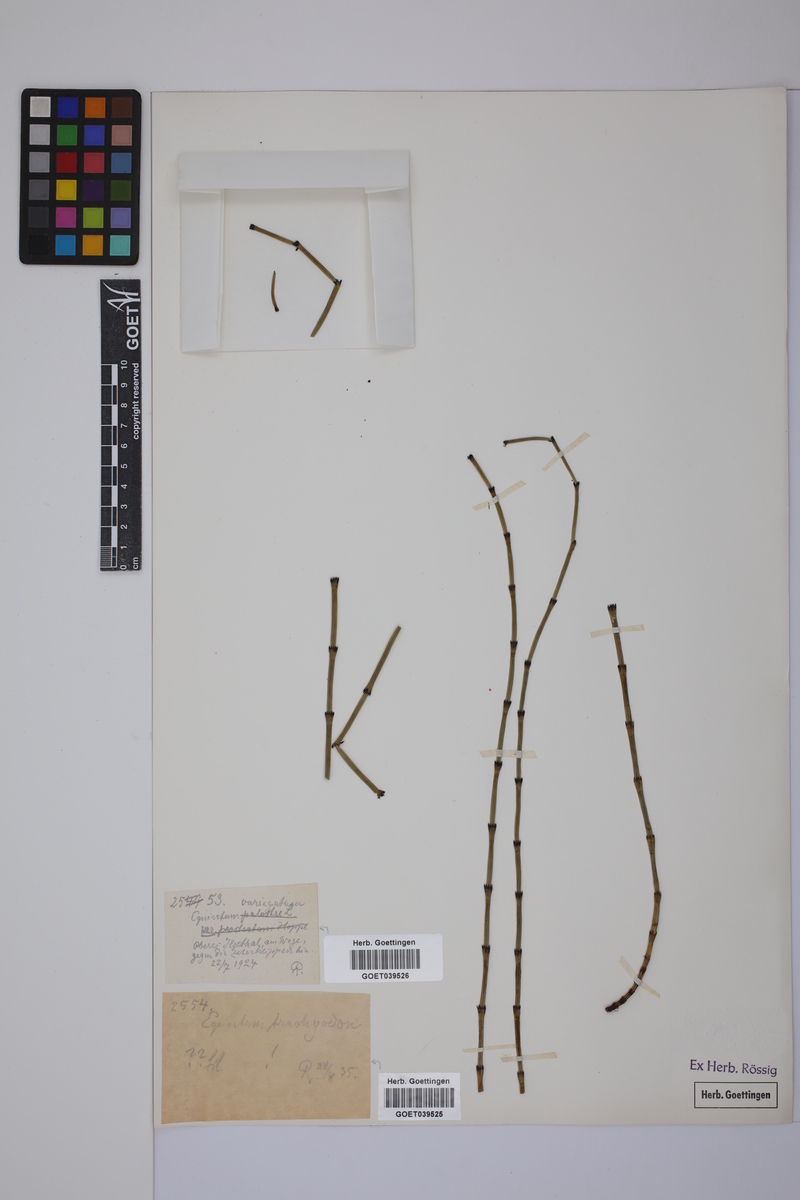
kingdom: Plantae
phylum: Tracheophyta
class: Polypodiopsida
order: Equisetales
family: Equisetaceae
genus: Equisetum
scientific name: Equisetum trachyodon
